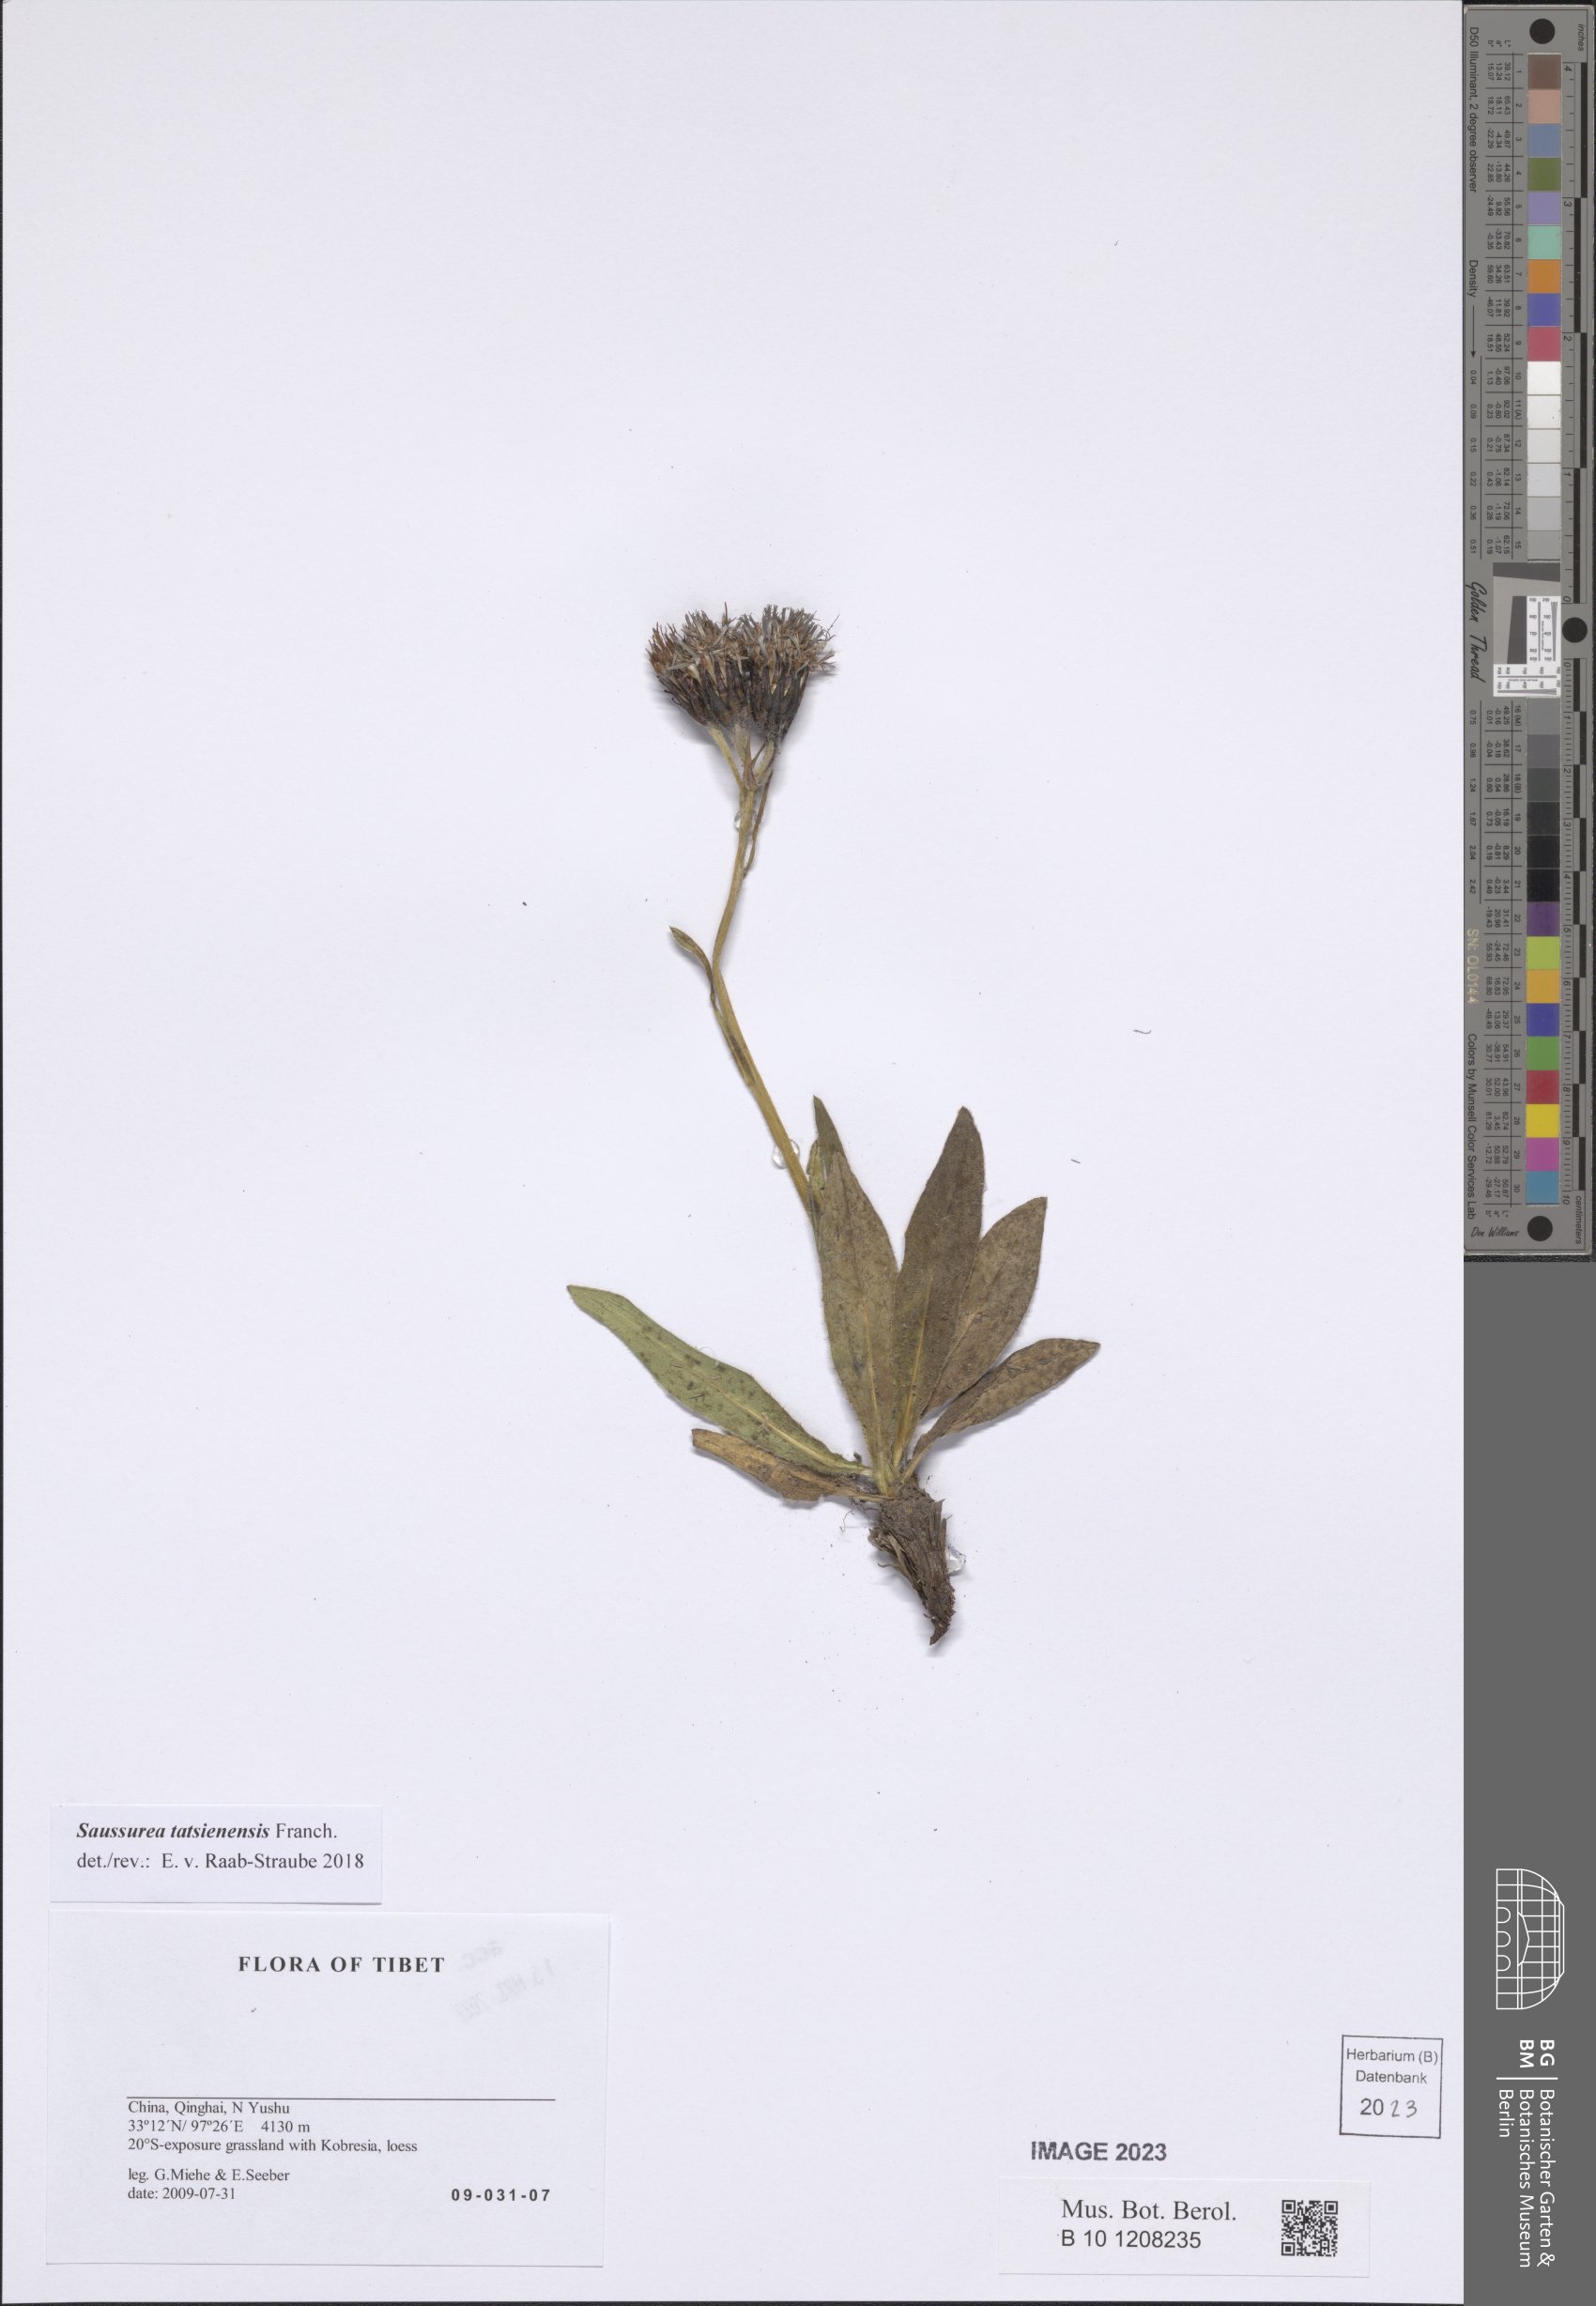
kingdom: Plantae
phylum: Tracheophyta
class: Magnoliopsida
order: Asterales
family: Asteraceae
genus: Saussurea
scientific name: Saussurea tatsienensis
